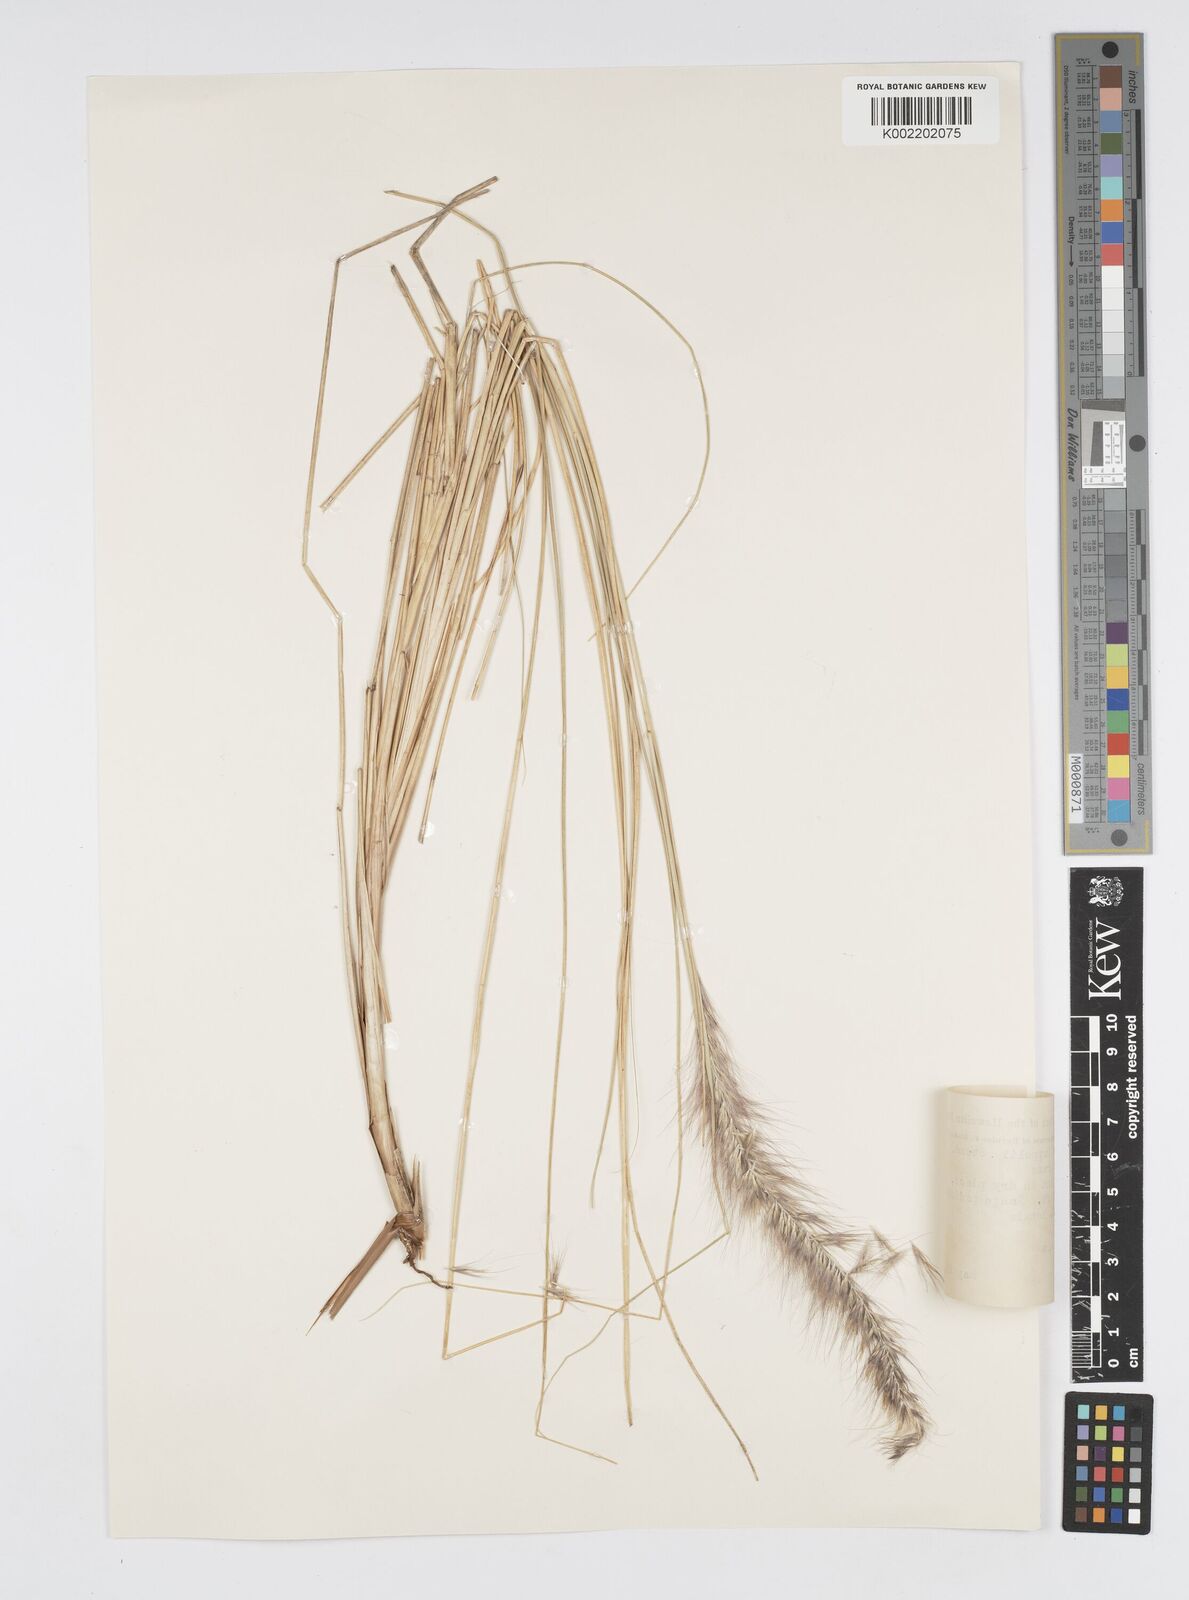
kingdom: Plantae
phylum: Tracheophyta
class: Liliopsida
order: Poales
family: Poaceae
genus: Cenchrus
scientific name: Cenchrus setaceus
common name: Crimson fountaingrass
